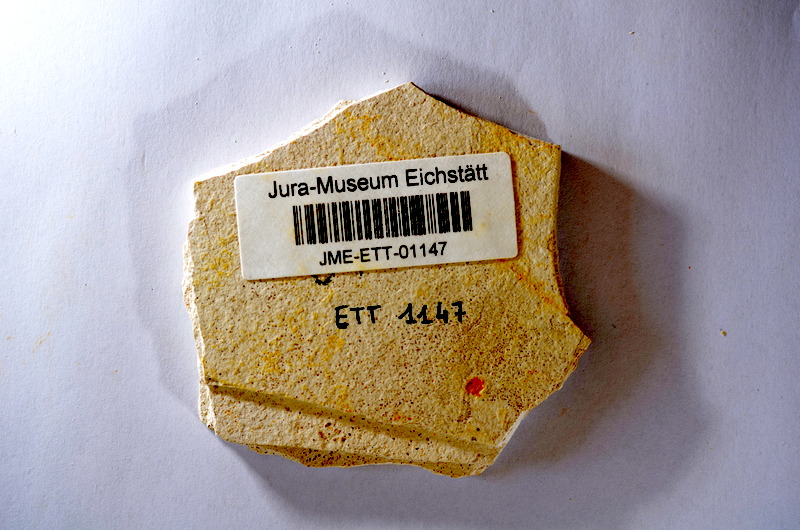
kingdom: Animalia
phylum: Chordata
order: Salmoniformes
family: Orthogonikleithridae
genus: Orthogonikleithrus
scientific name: Orthogonikleithrus hoelli
